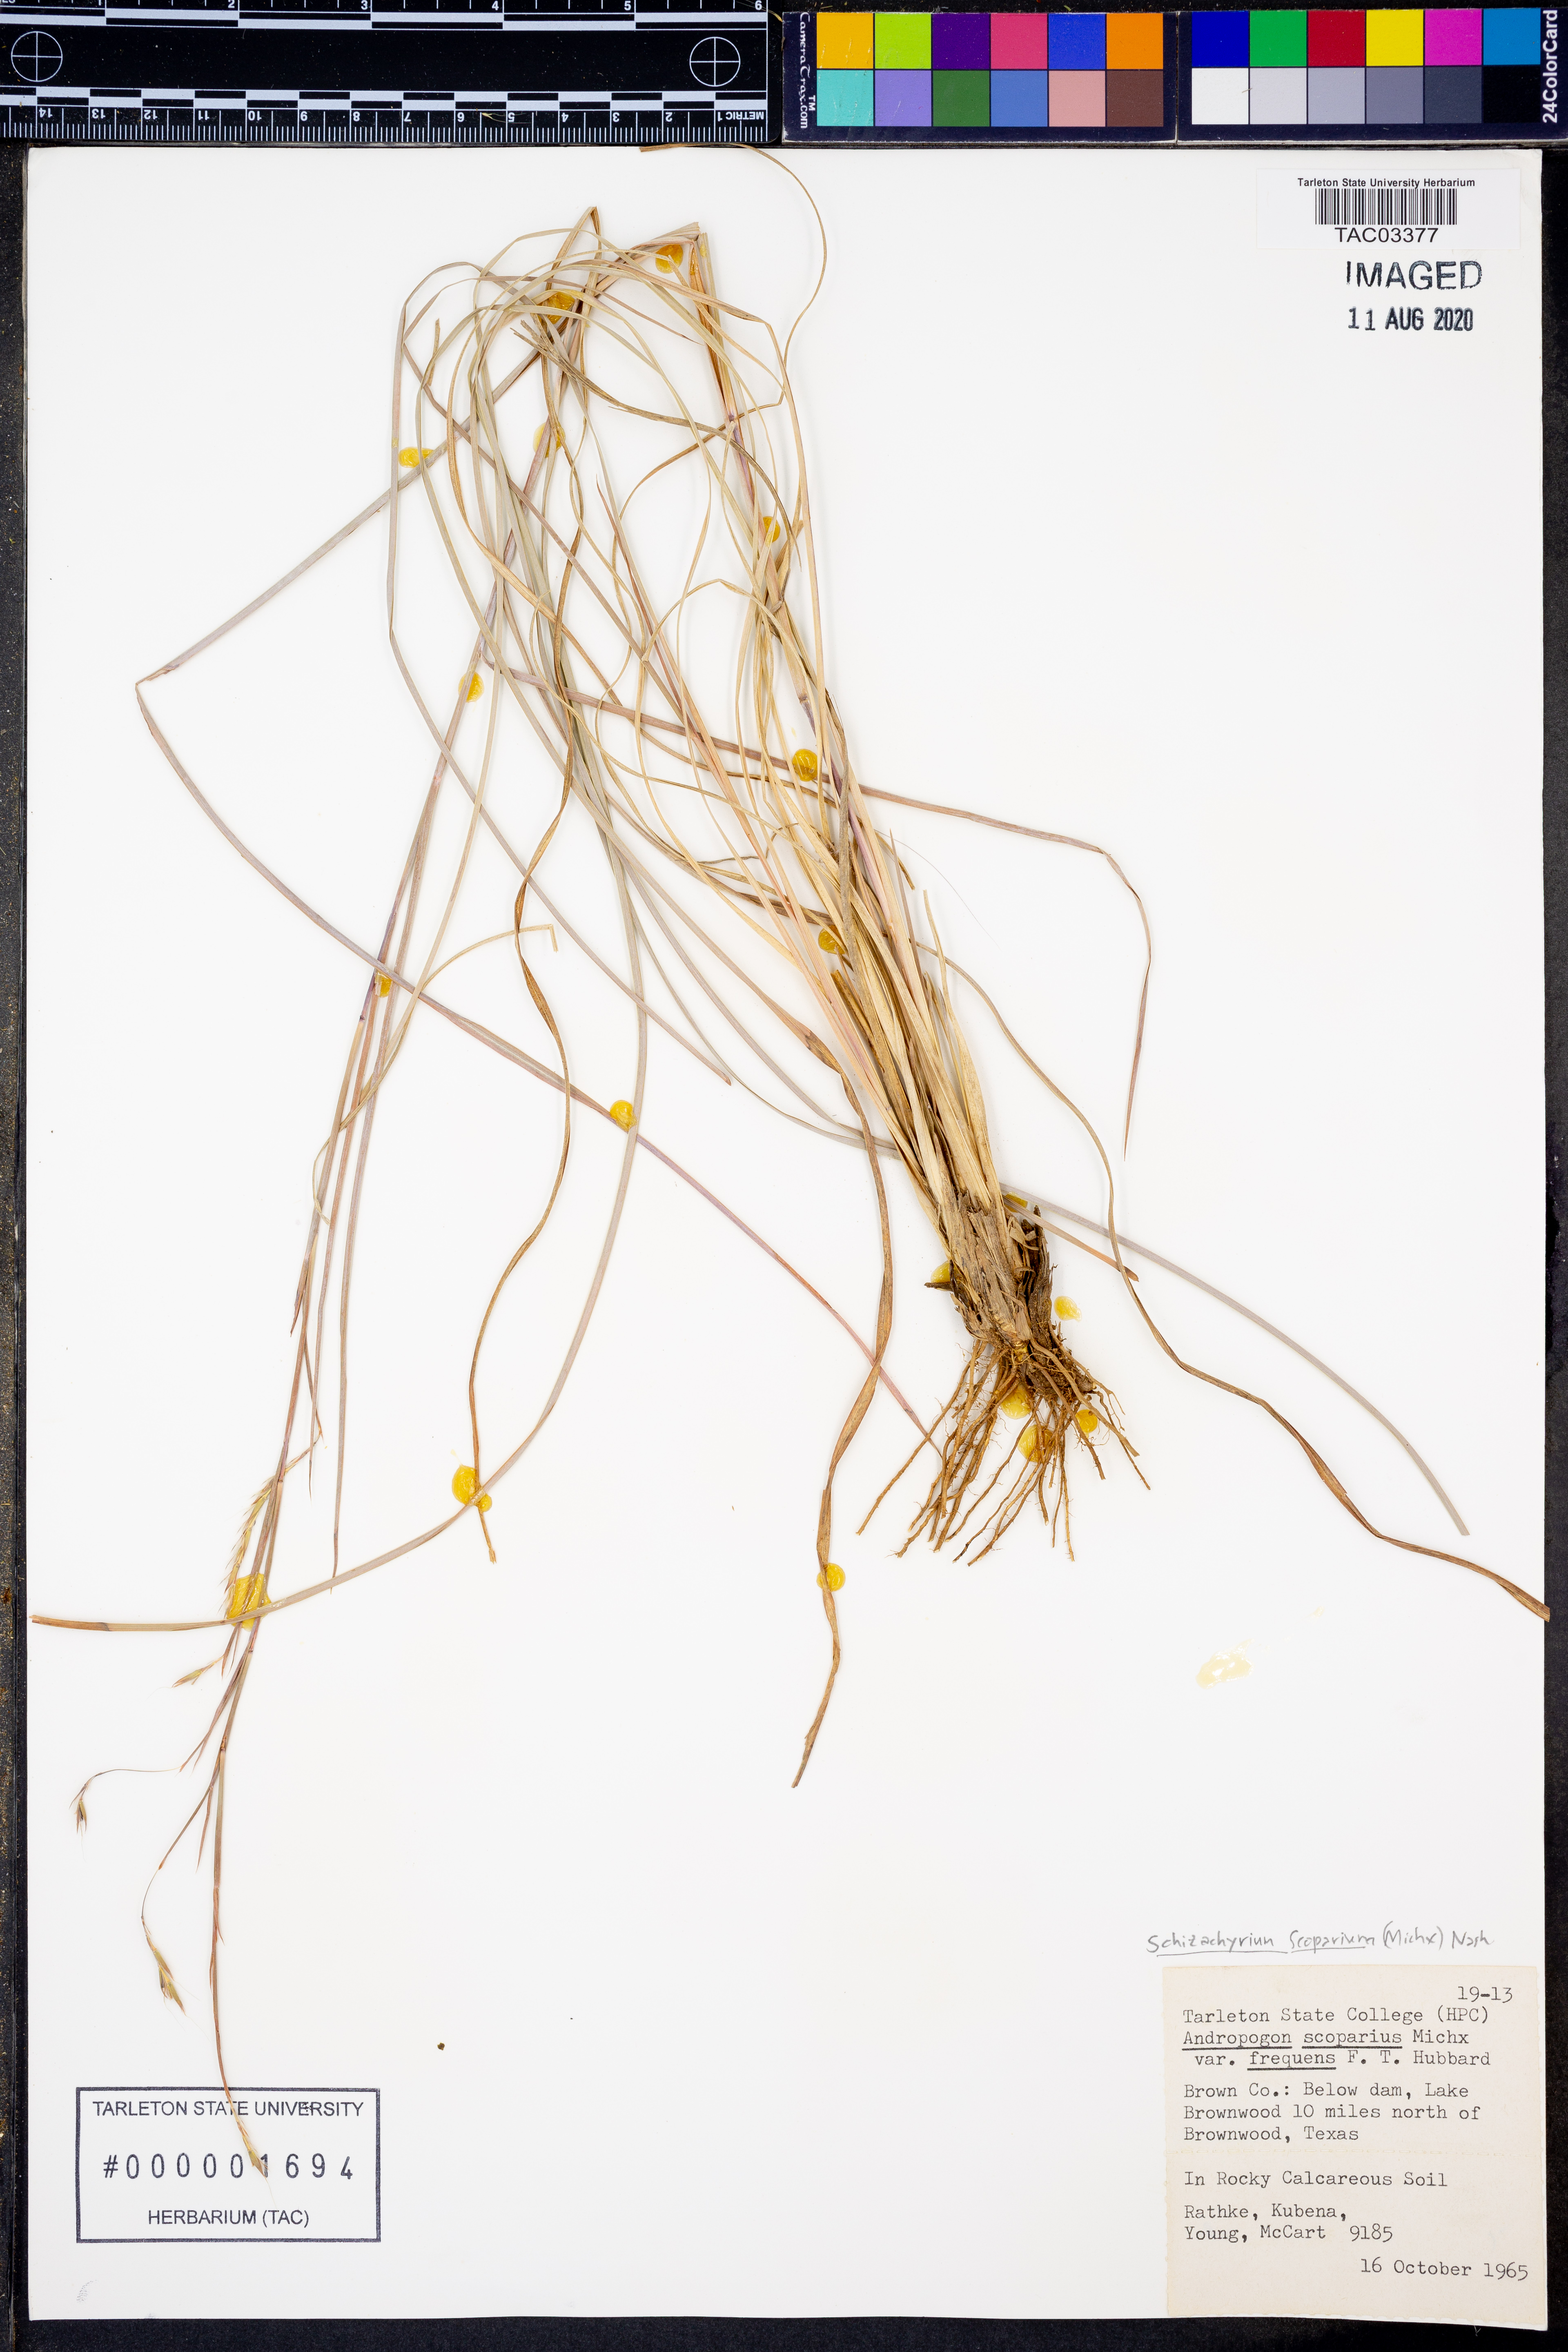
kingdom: Plantae
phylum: Tracheophyta
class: Liliopsida
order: Poales
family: Poaceae
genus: Schizachyrium
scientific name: Schizachyrium scoparium
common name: Little bluestem
